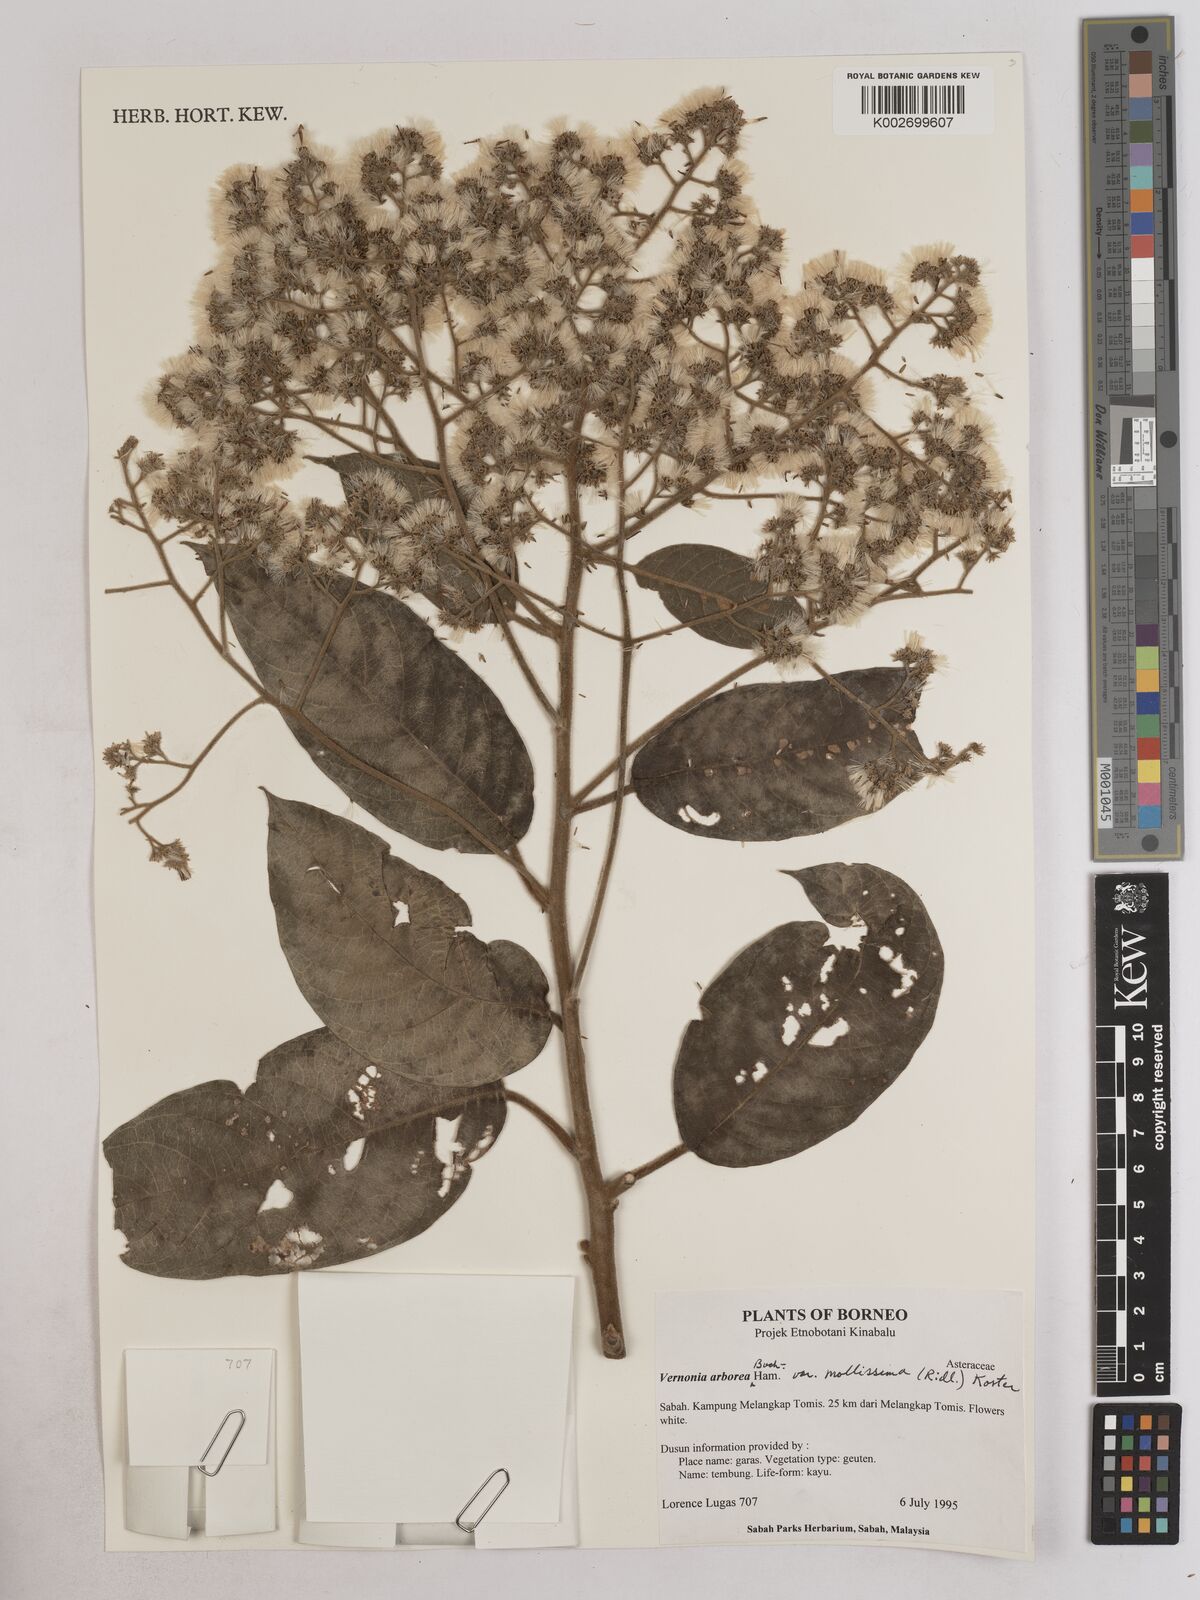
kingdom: Plantae
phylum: Tracheophyta
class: Magnoliopsida
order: Asterales
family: Asteraceae
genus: Strobocalyx
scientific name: Strobocalyx arborea
